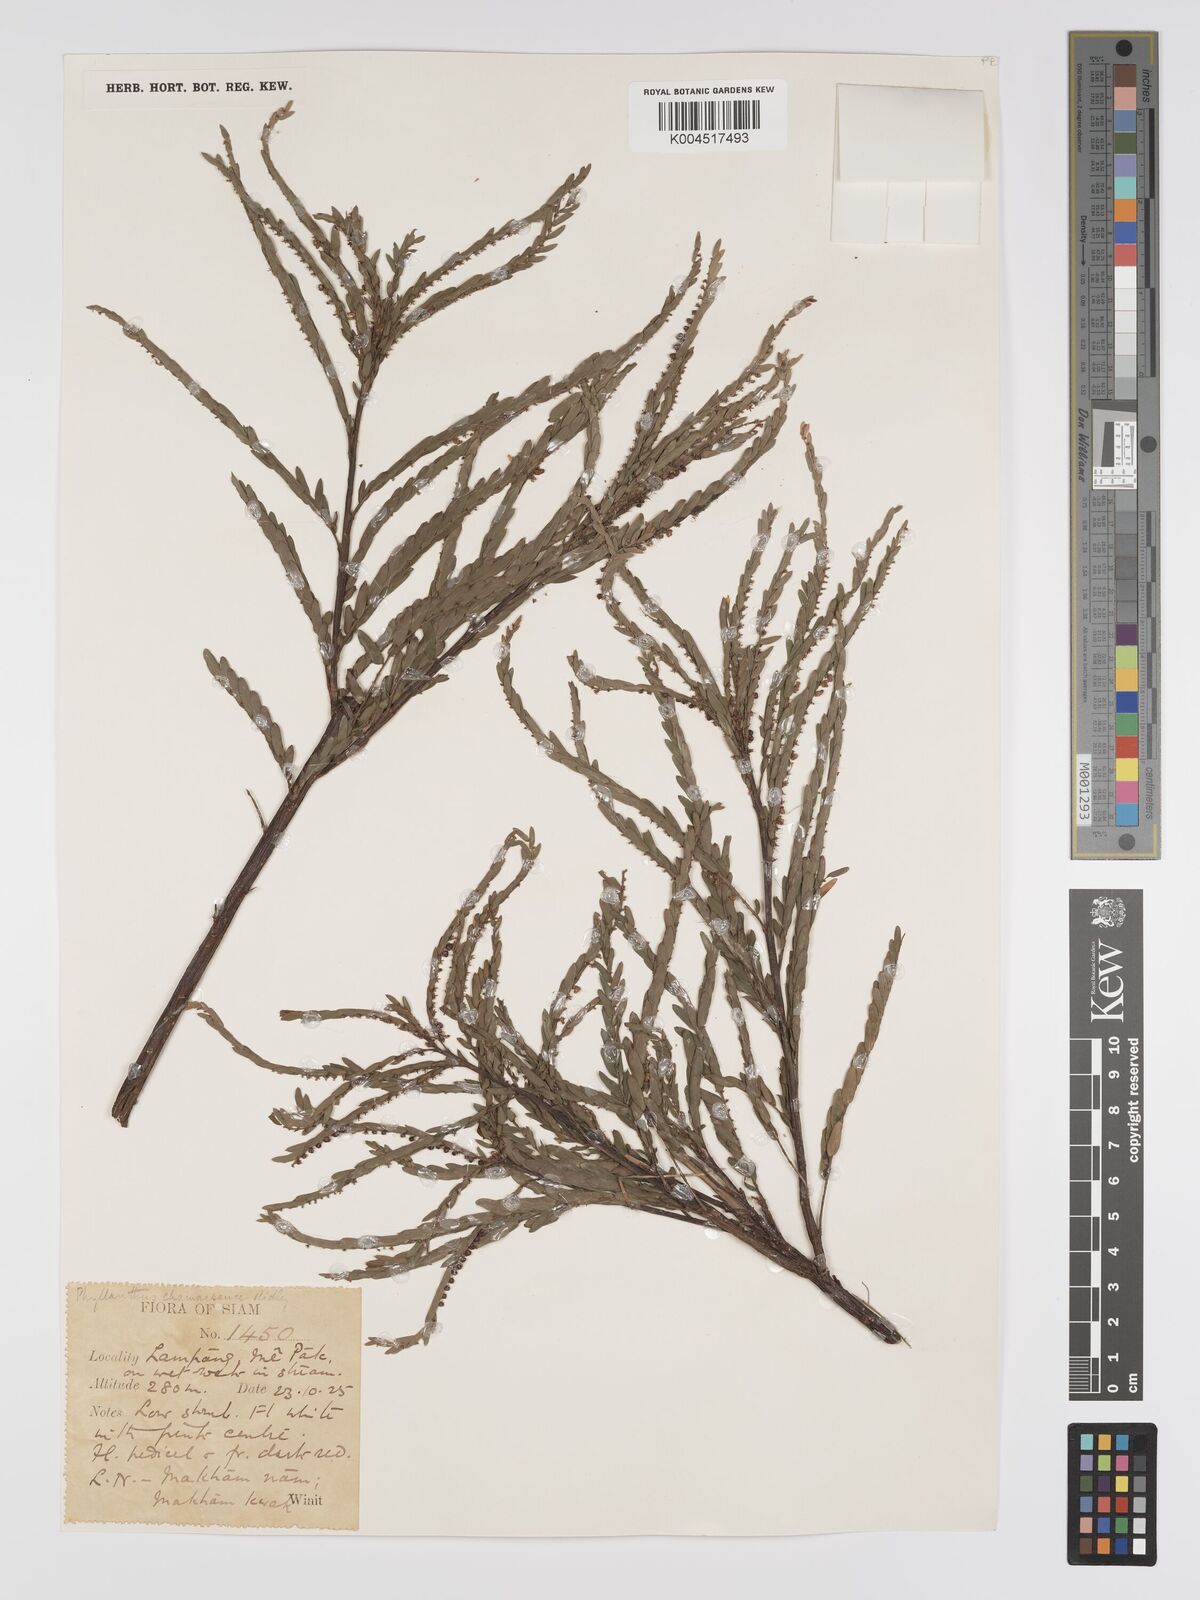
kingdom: Plantae
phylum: Tracheophyta
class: Magnoliopsida
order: Malpighiales
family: Phyllanthaceae
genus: Phyllanthus
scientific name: Phyllanthus chamaepeuce
